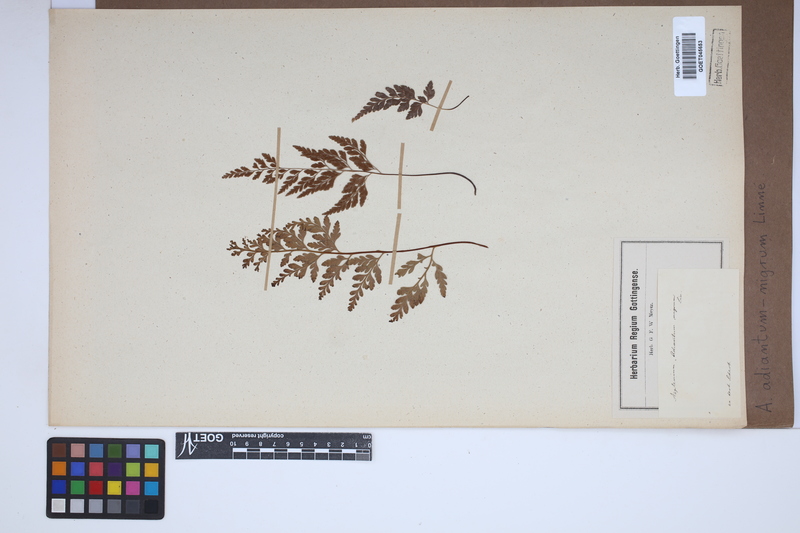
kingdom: Plantae
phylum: Tracheophyta
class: Polypodiopsida
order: Polypodiales
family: Aspleniaceae
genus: Asplenium
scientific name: Asplenium adiantum-nigrum
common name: Black spleenwort
